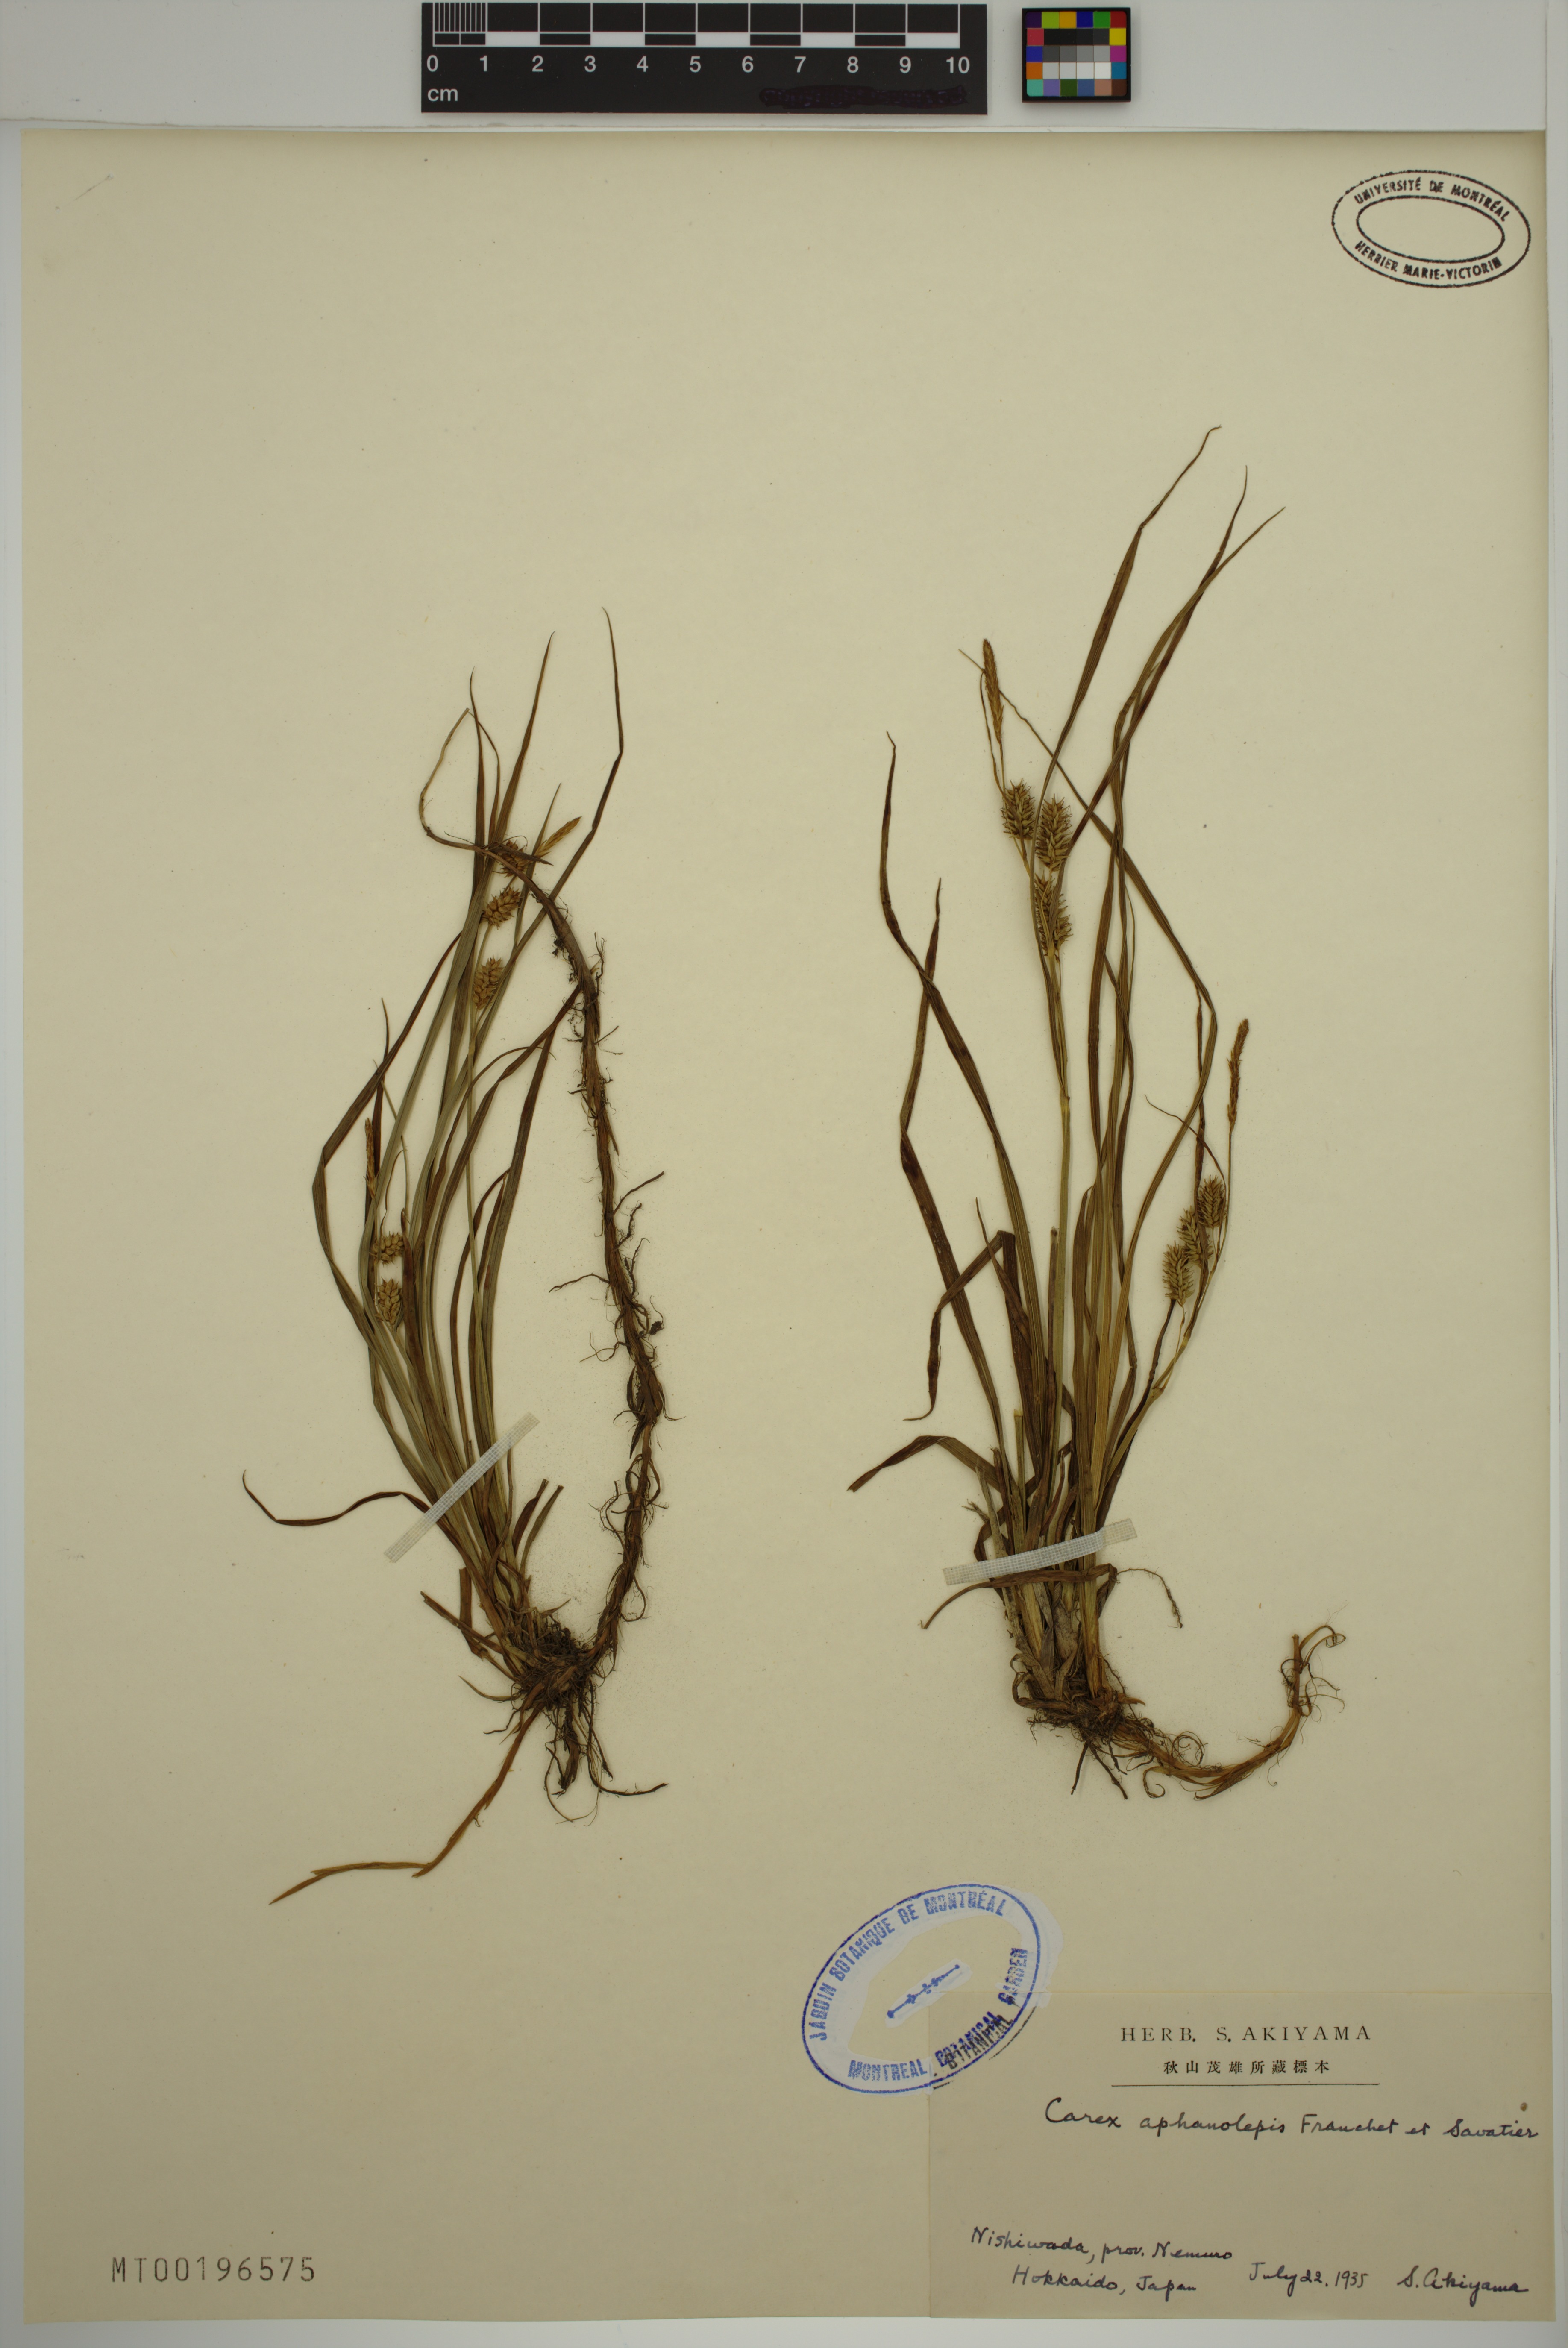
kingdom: Plantae
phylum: Tracheophyta
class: Liliopsida
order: Poales
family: Cyperaceae
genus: Carex
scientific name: Carex aphanolepis
